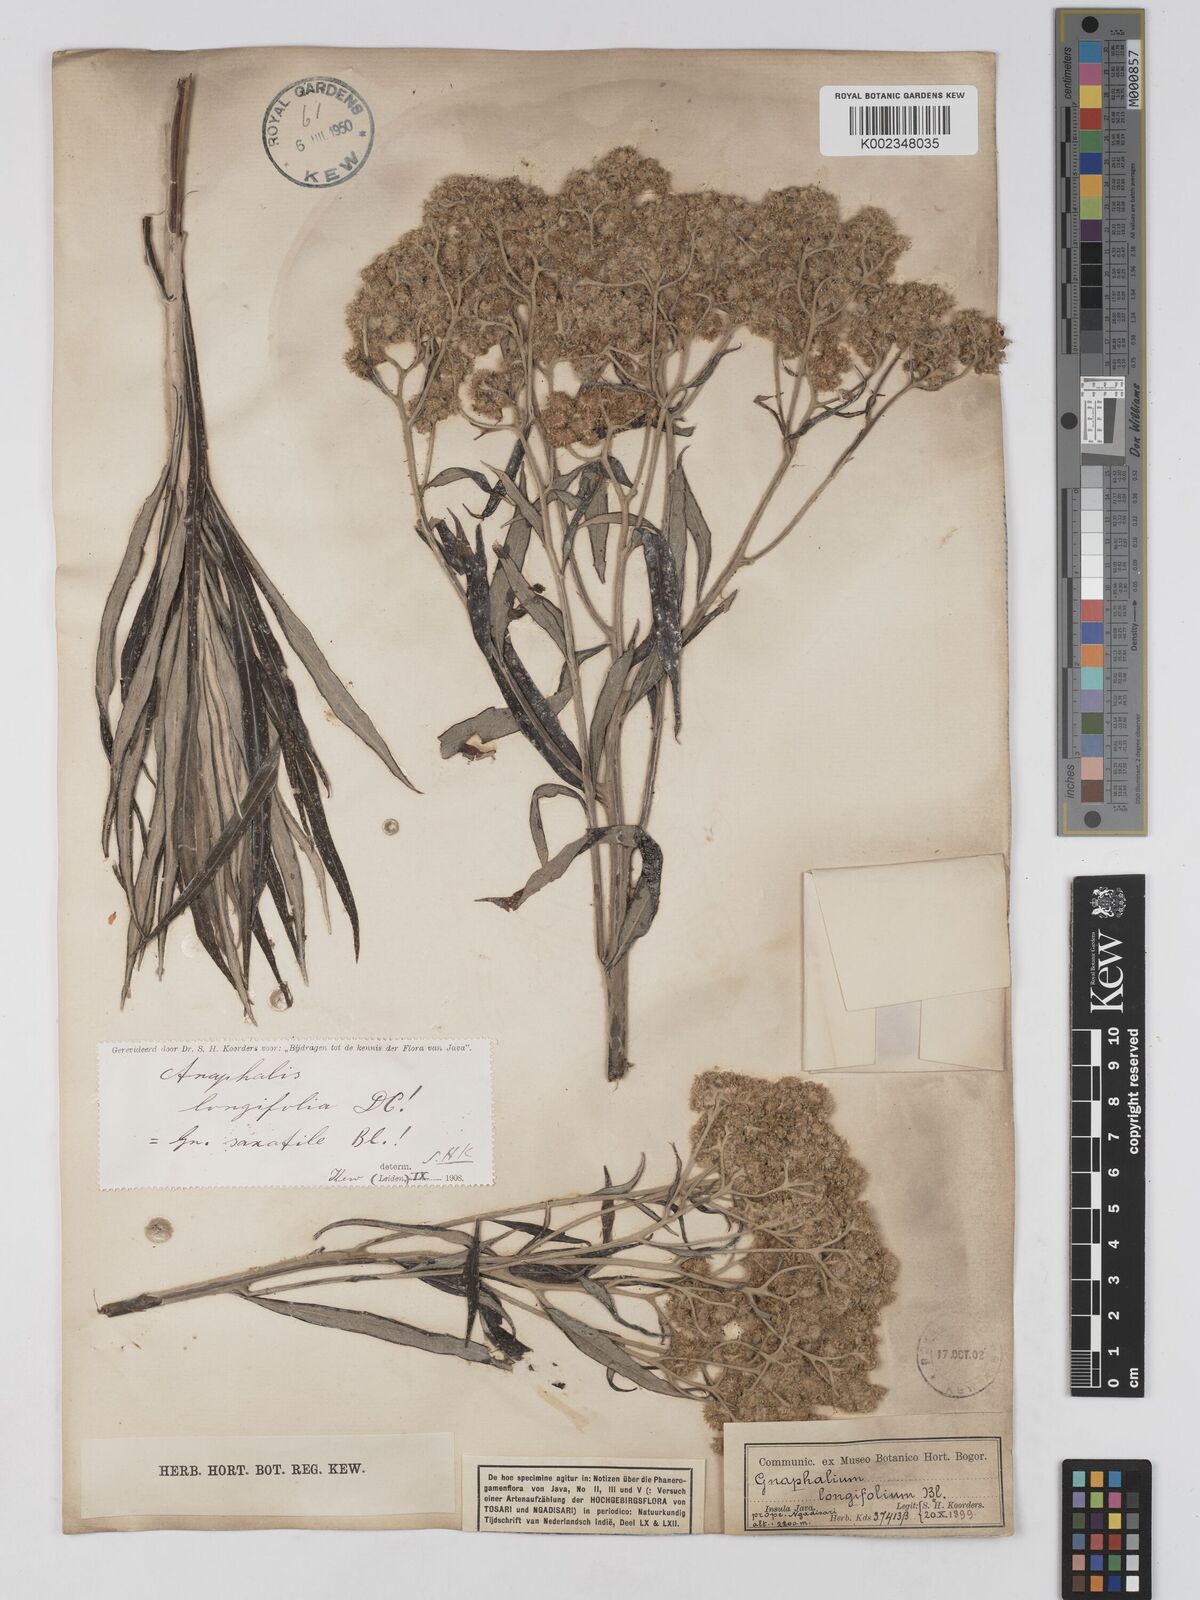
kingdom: Plantae
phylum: Tracheophyta
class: Magnoliopsida
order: Asterales
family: Asteraceae
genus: Anaphalis
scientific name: Anaphalis longifolia
